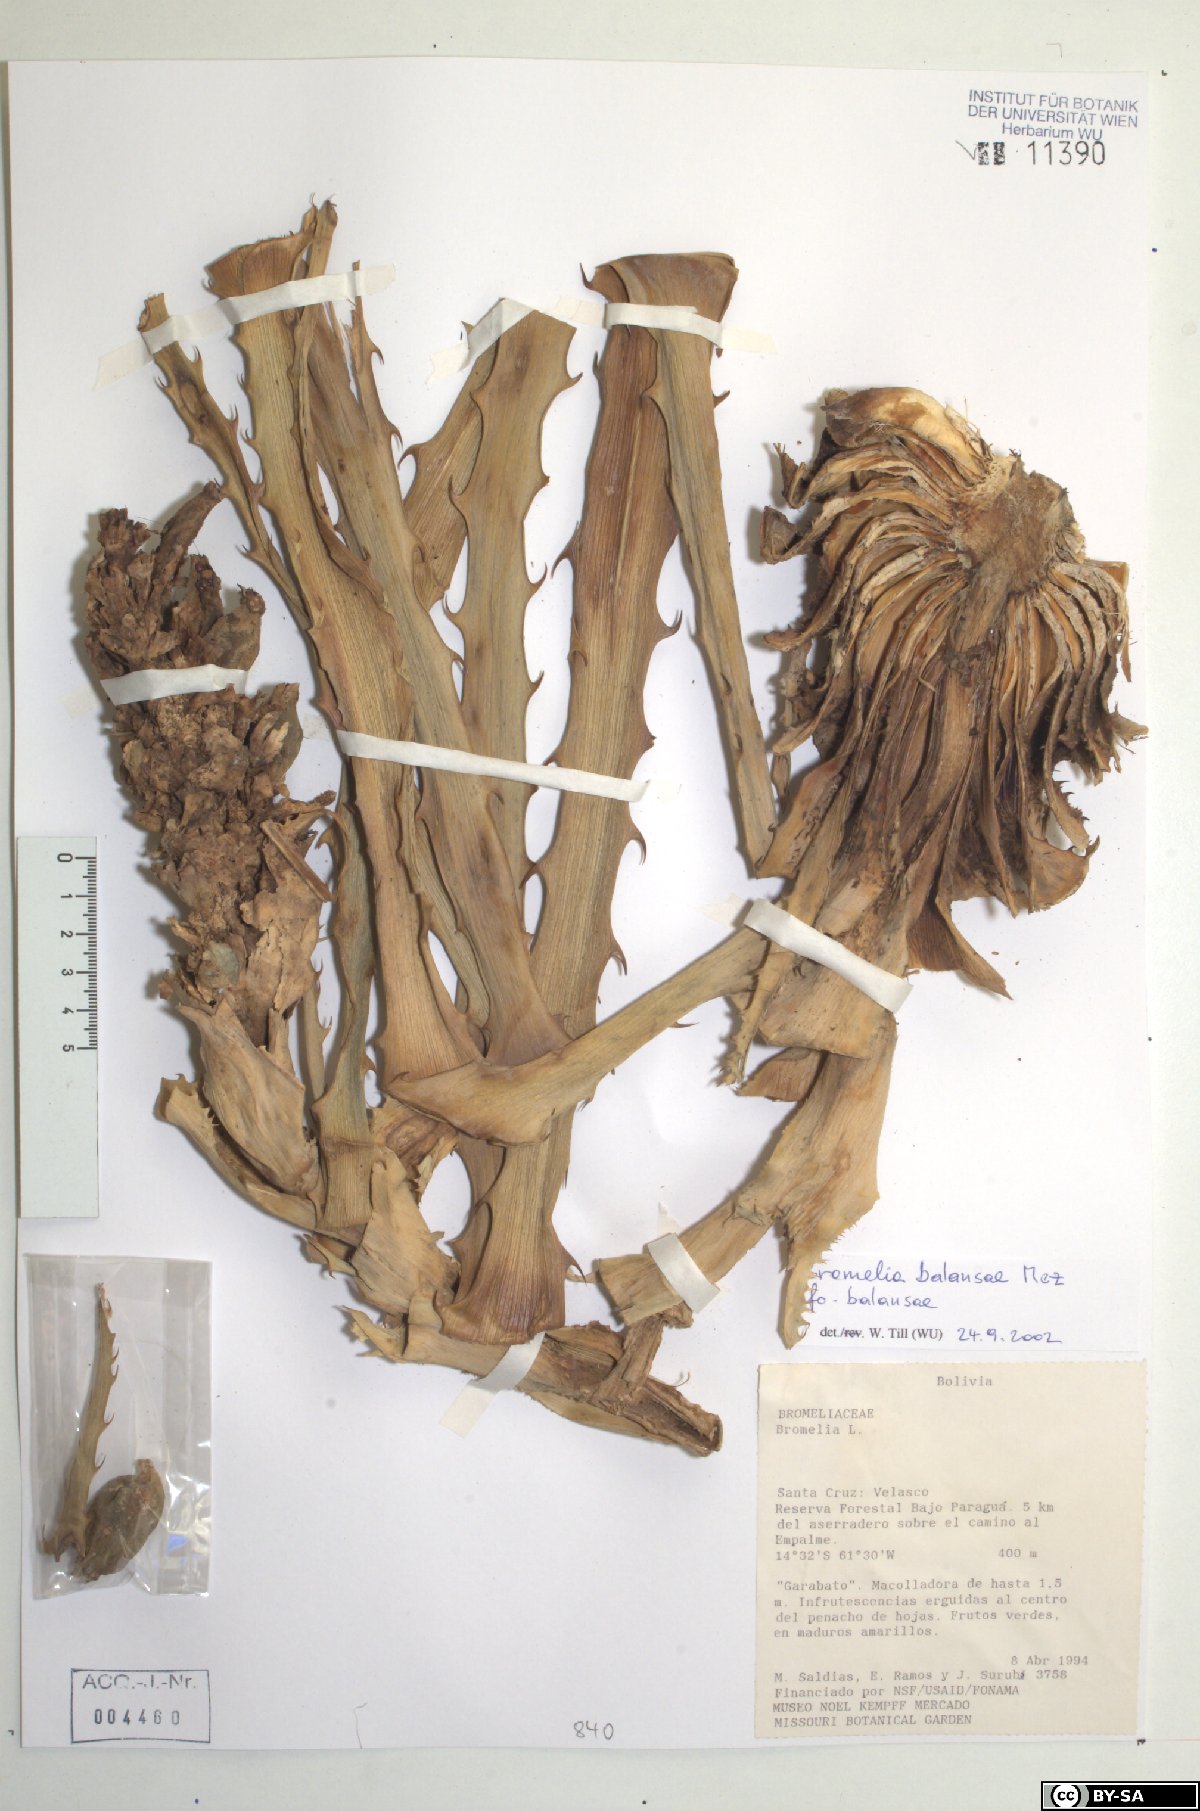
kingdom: Plantae
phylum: Tracheophyta
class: Liliopsida
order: Poales
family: Bromeliaceae
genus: Bromelia
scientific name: Bromelia balansae
